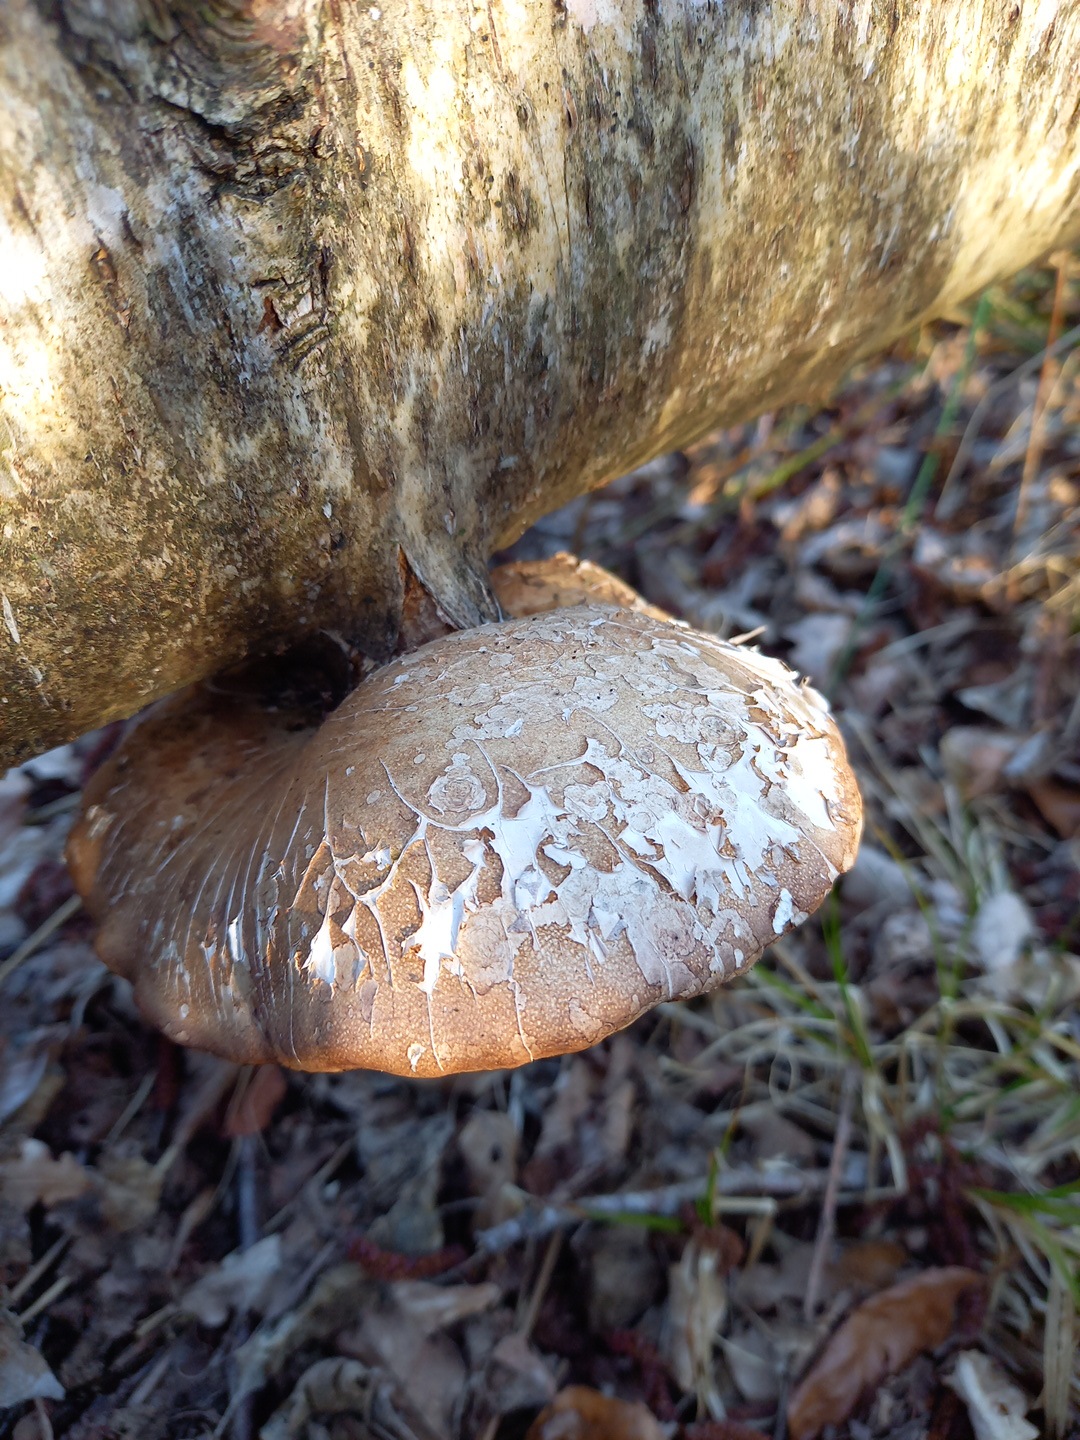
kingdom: Fungi
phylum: Basidiomycota
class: Agaricomycetes
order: Polyporales
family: Fomitopsidaceae
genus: Fomitopsis
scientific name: Fomitopsis betulina
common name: birkeporesvamp
